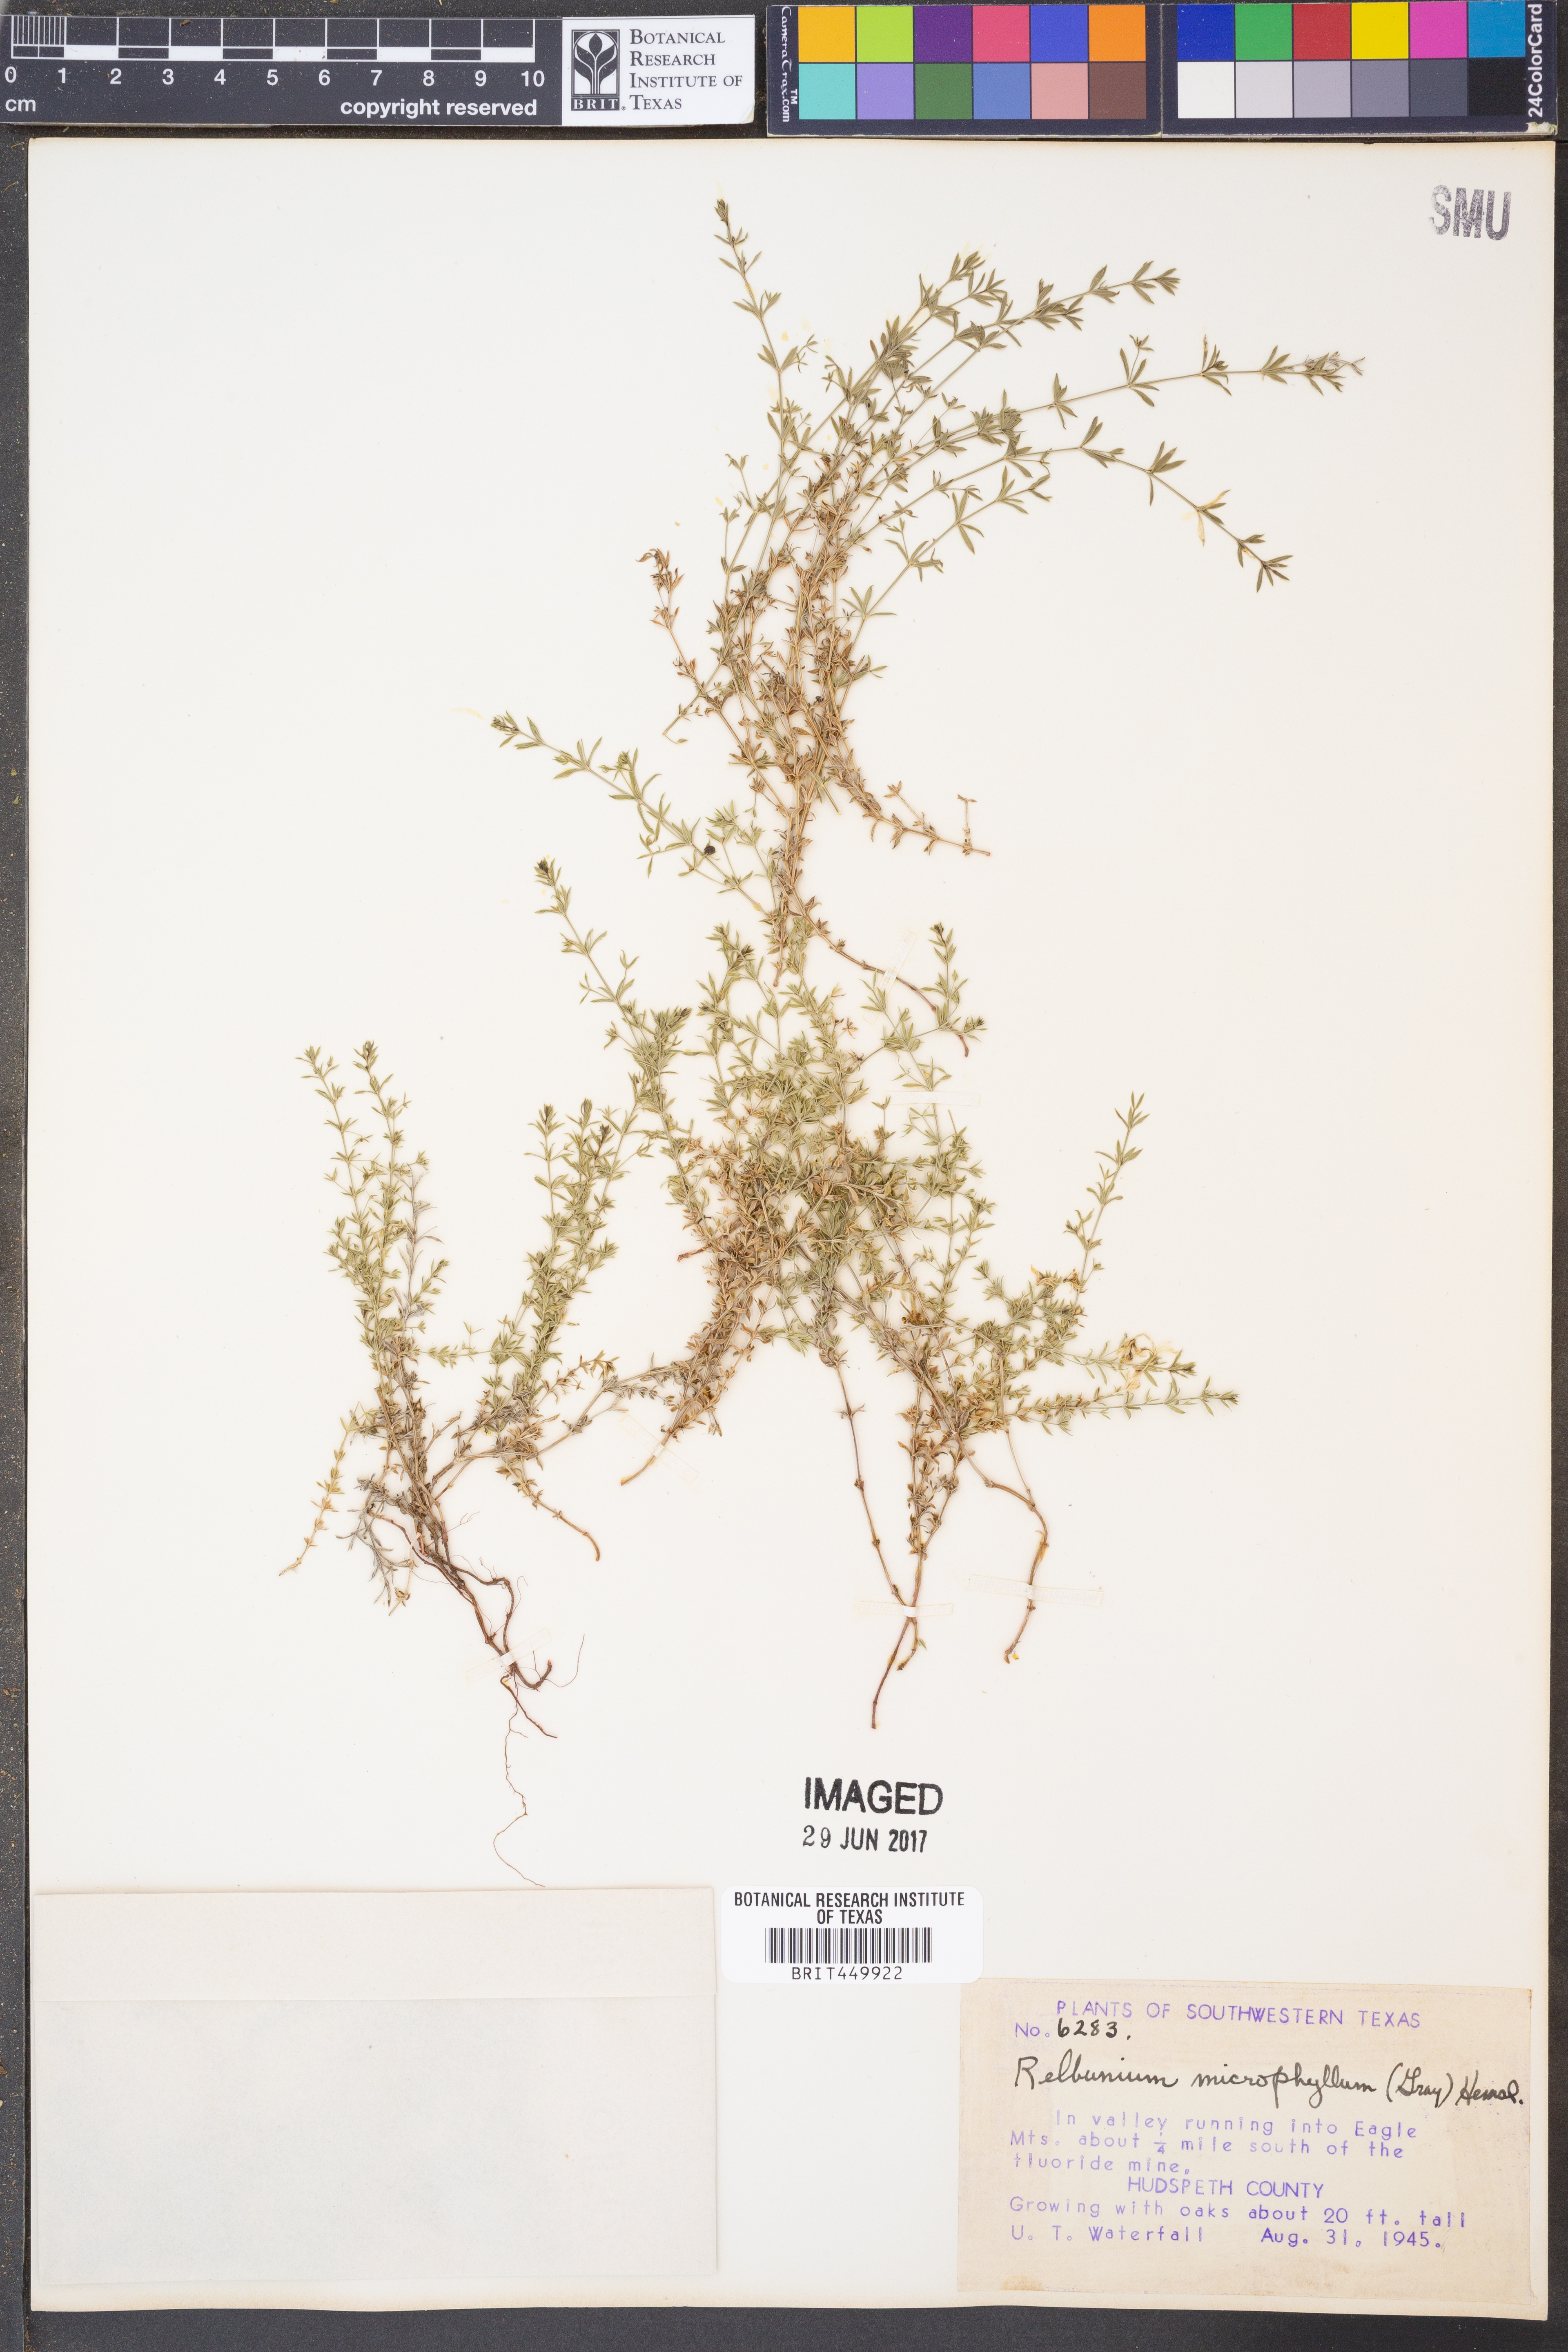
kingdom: Plantae
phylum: Tracheophyta
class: Magnoliopsida
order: Gentianales
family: Rubiaceae
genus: Galium
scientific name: Galium microphyllum
